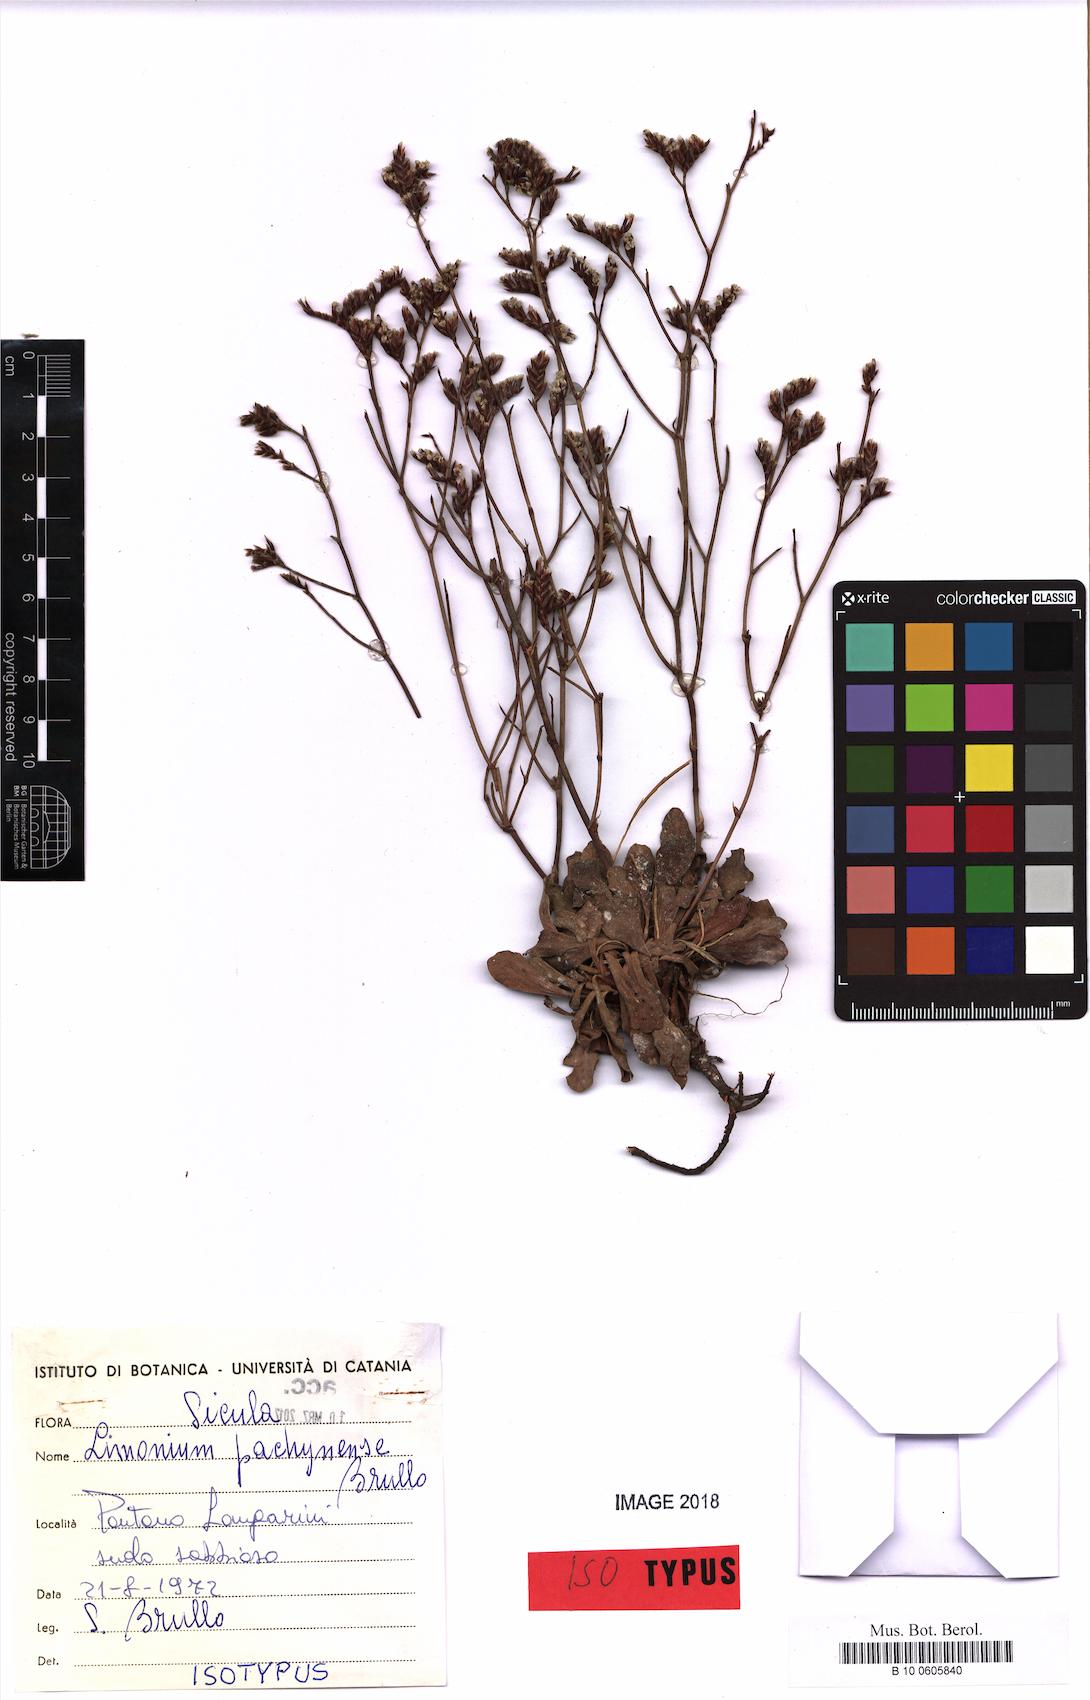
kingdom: Plantae
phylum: Tracheophyta
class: Magnoliopsida
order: Caryophyllales
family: Plumbaginaceae
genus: Limonium
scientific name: Limonium pachynense
